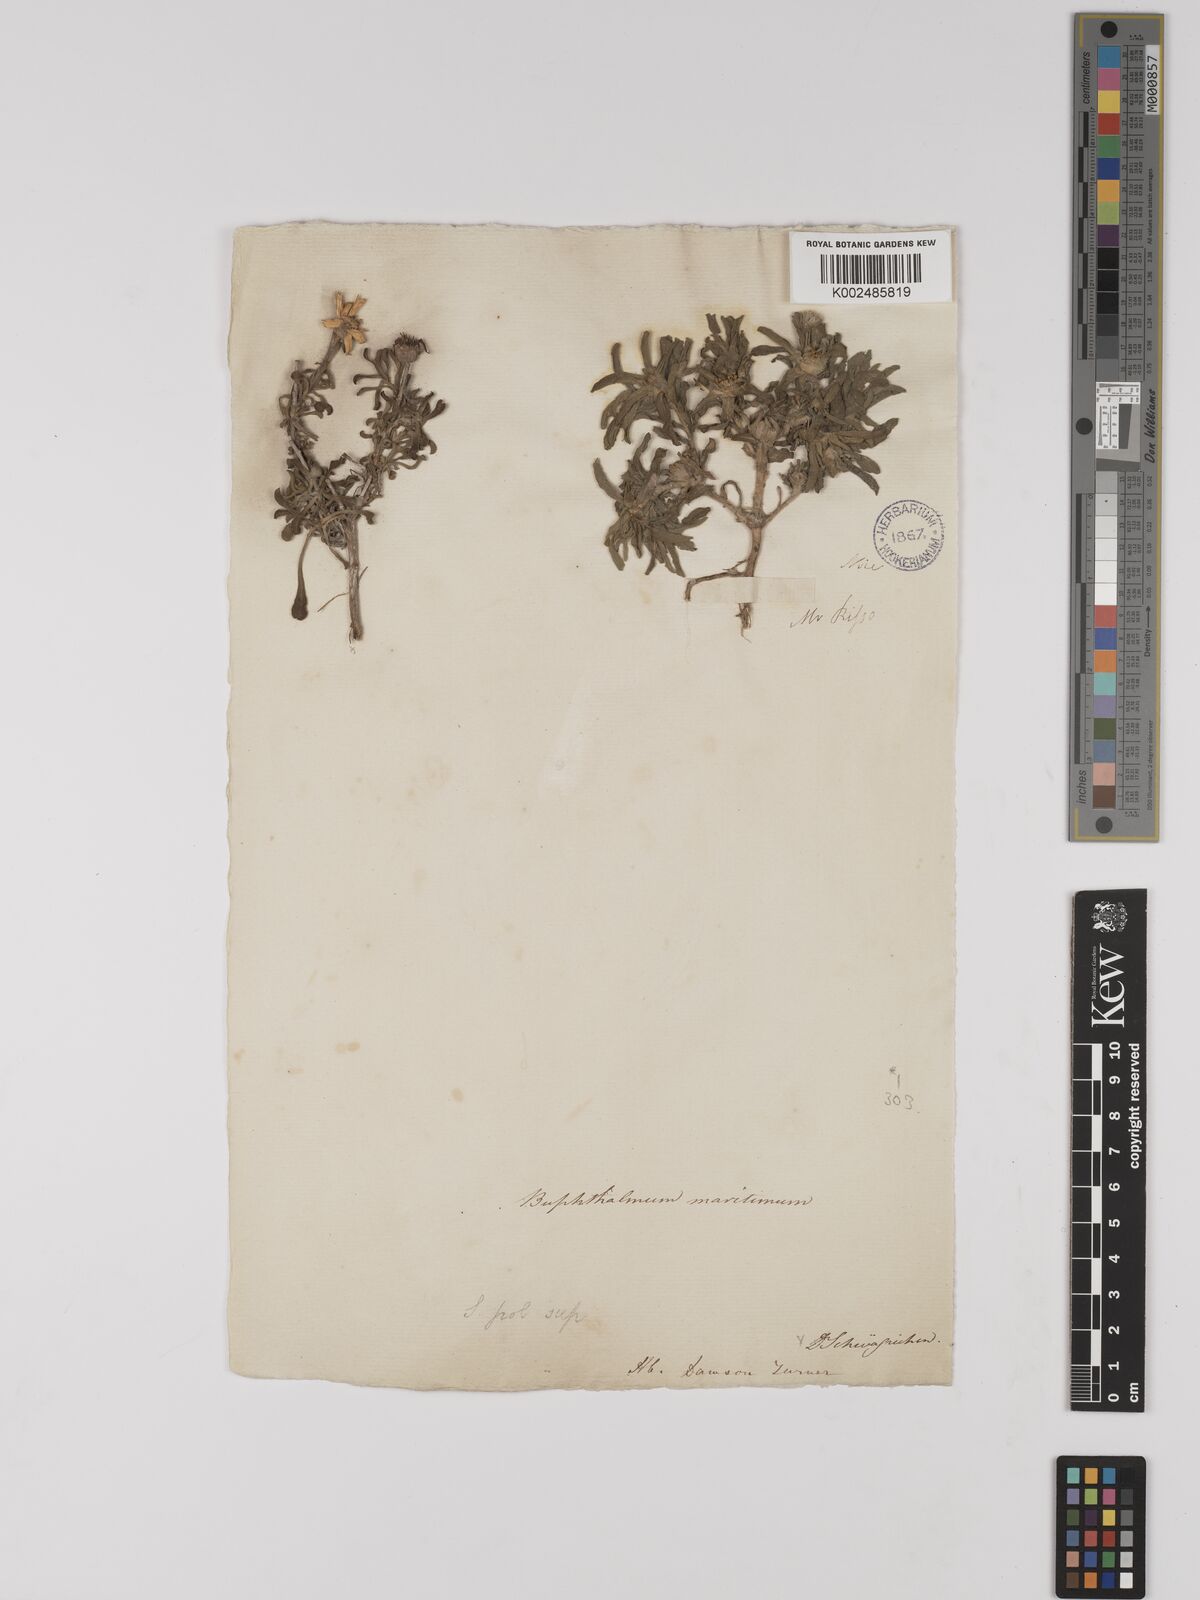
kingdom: Plantae
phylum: Tracheophyta
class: Magnoliopsida
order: Asterales
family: Asteraceae
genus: Pallenis
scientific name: Pallenis maritima
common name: Golden coin daisy
